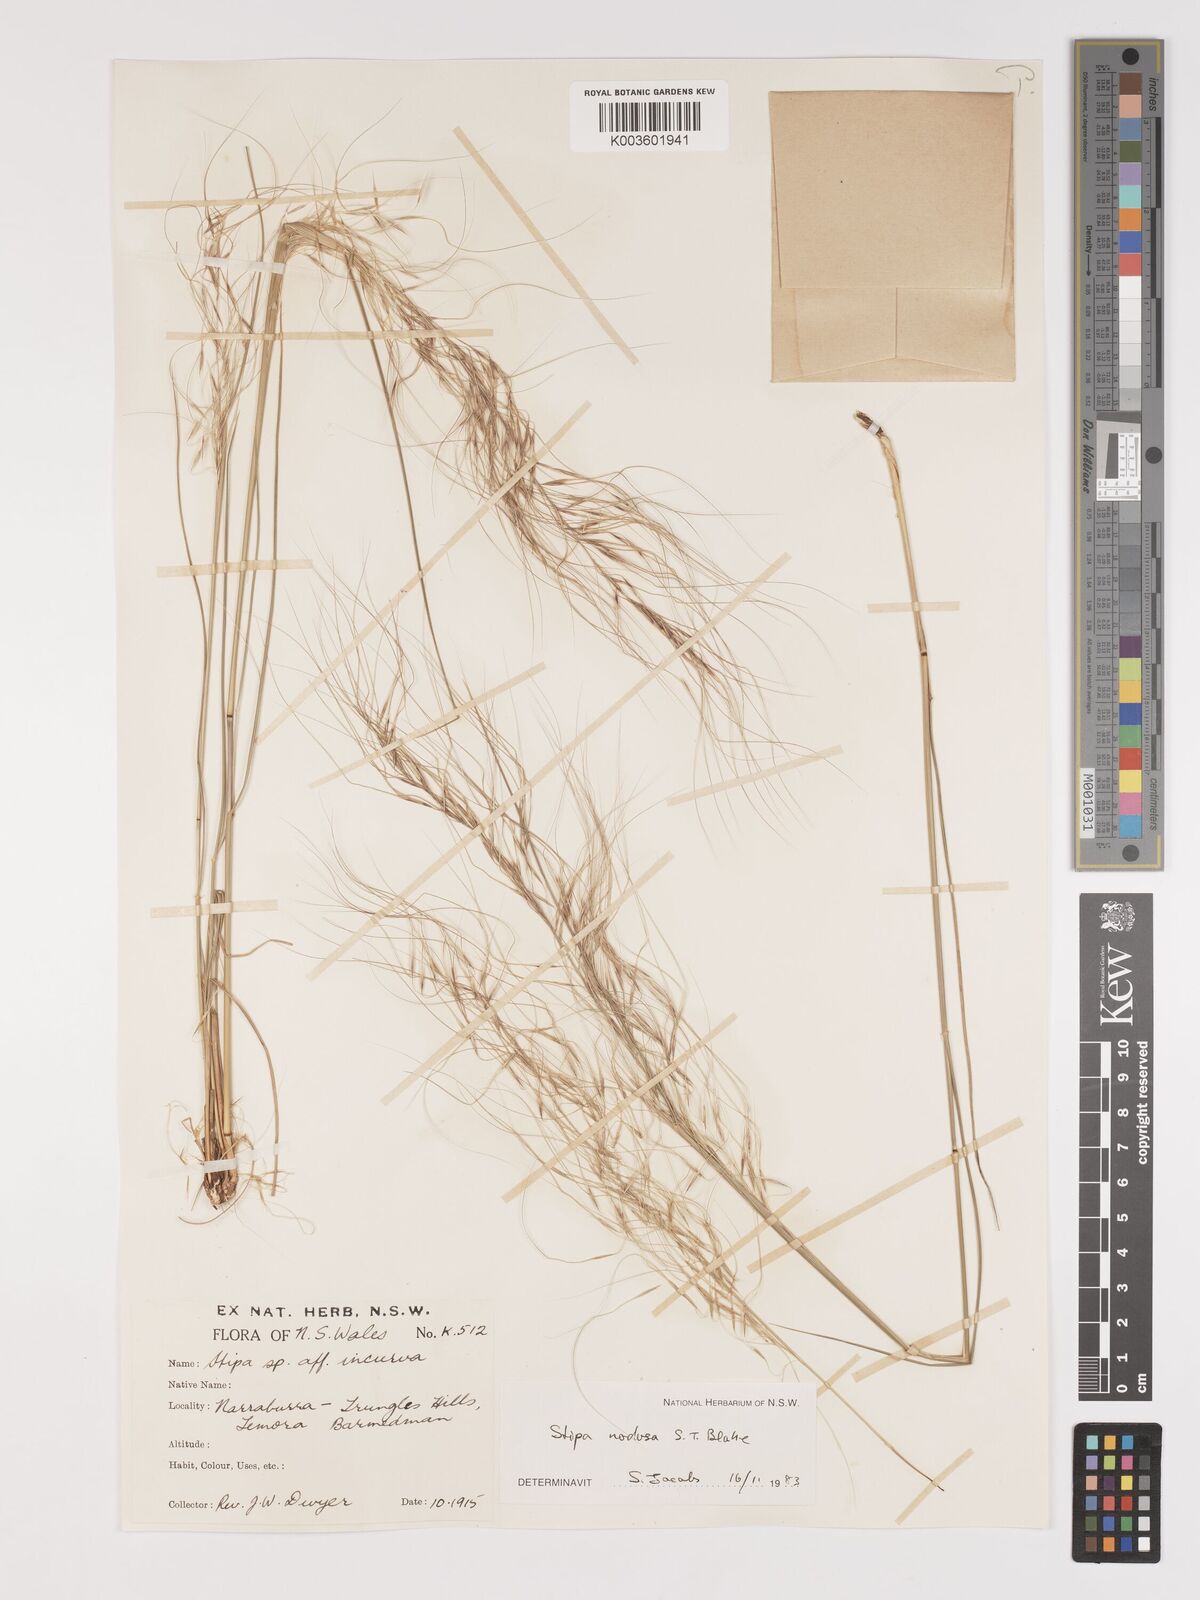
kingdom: Plantae
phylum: Tracheophyta
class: Liliopsida
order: Poales
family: Poaceae
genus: Austrostipa
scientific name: Austrostipa nodosa
